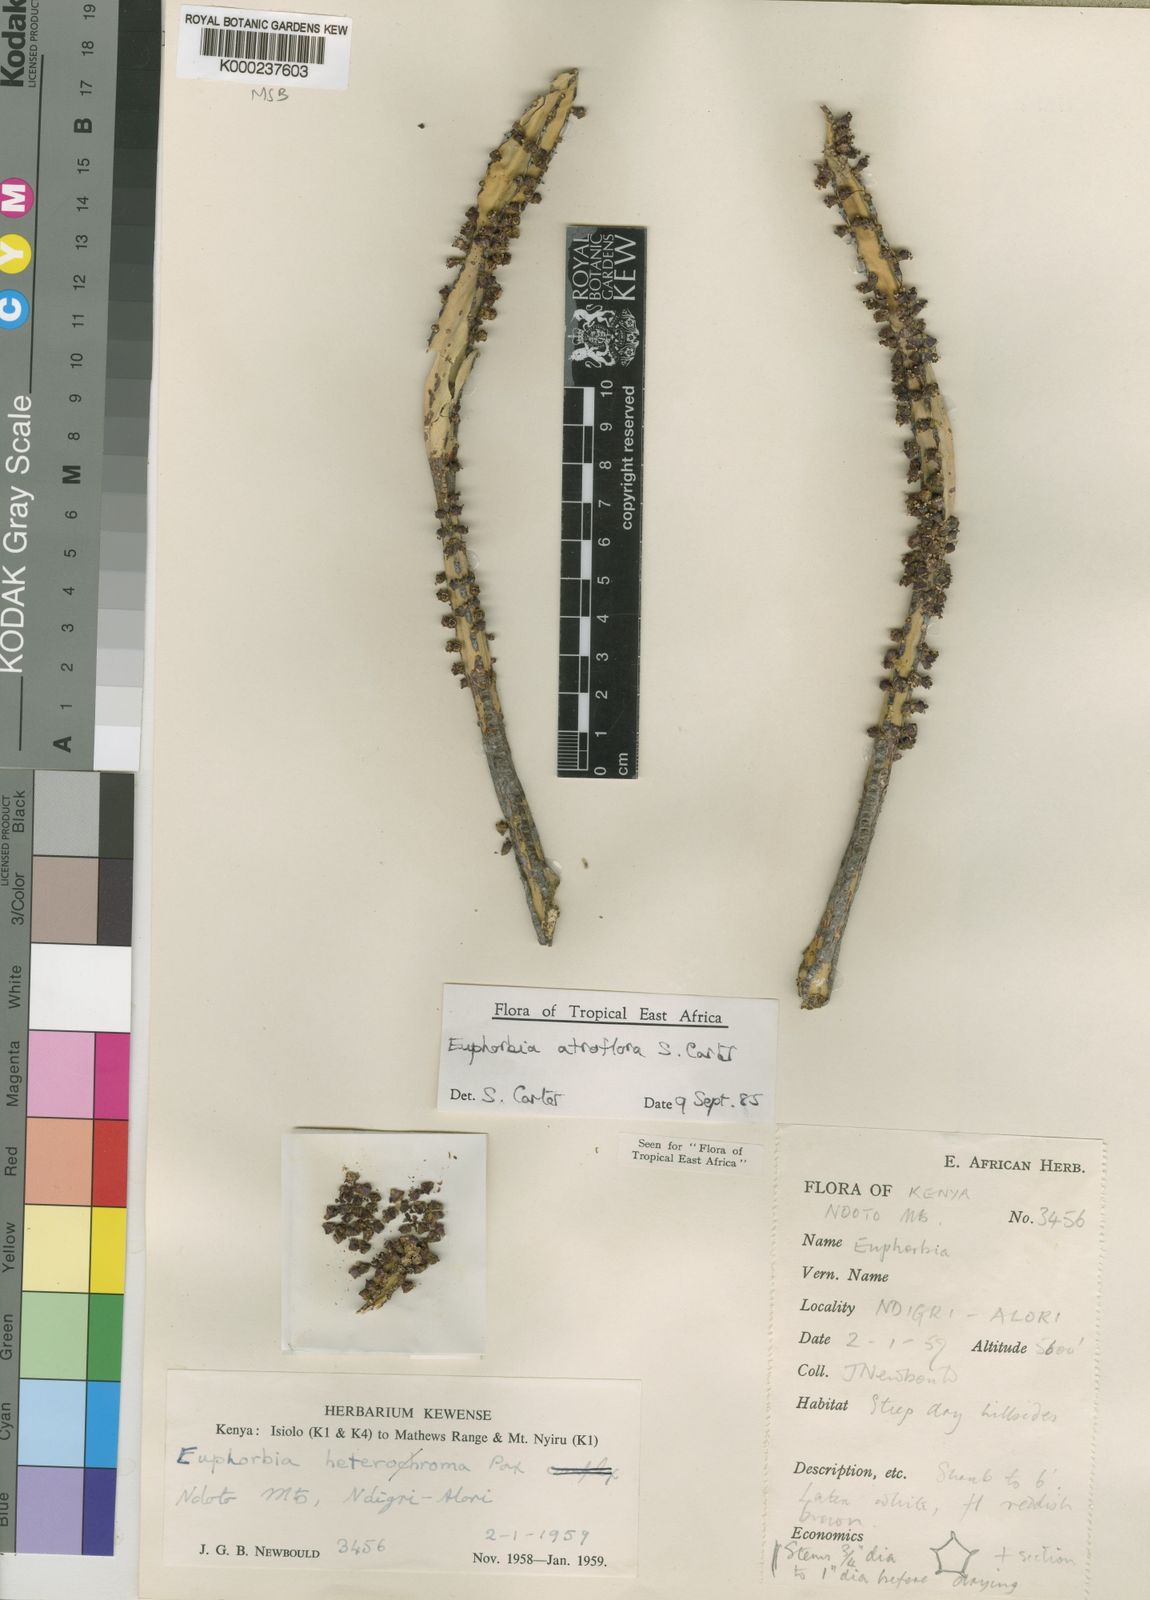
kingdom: Plantae
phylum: Tracheophyta
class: Magnoliopsida
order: Malpighiales
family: Euphorbiaceae
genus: Euphorbia
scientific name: Euphorbia atroflora
